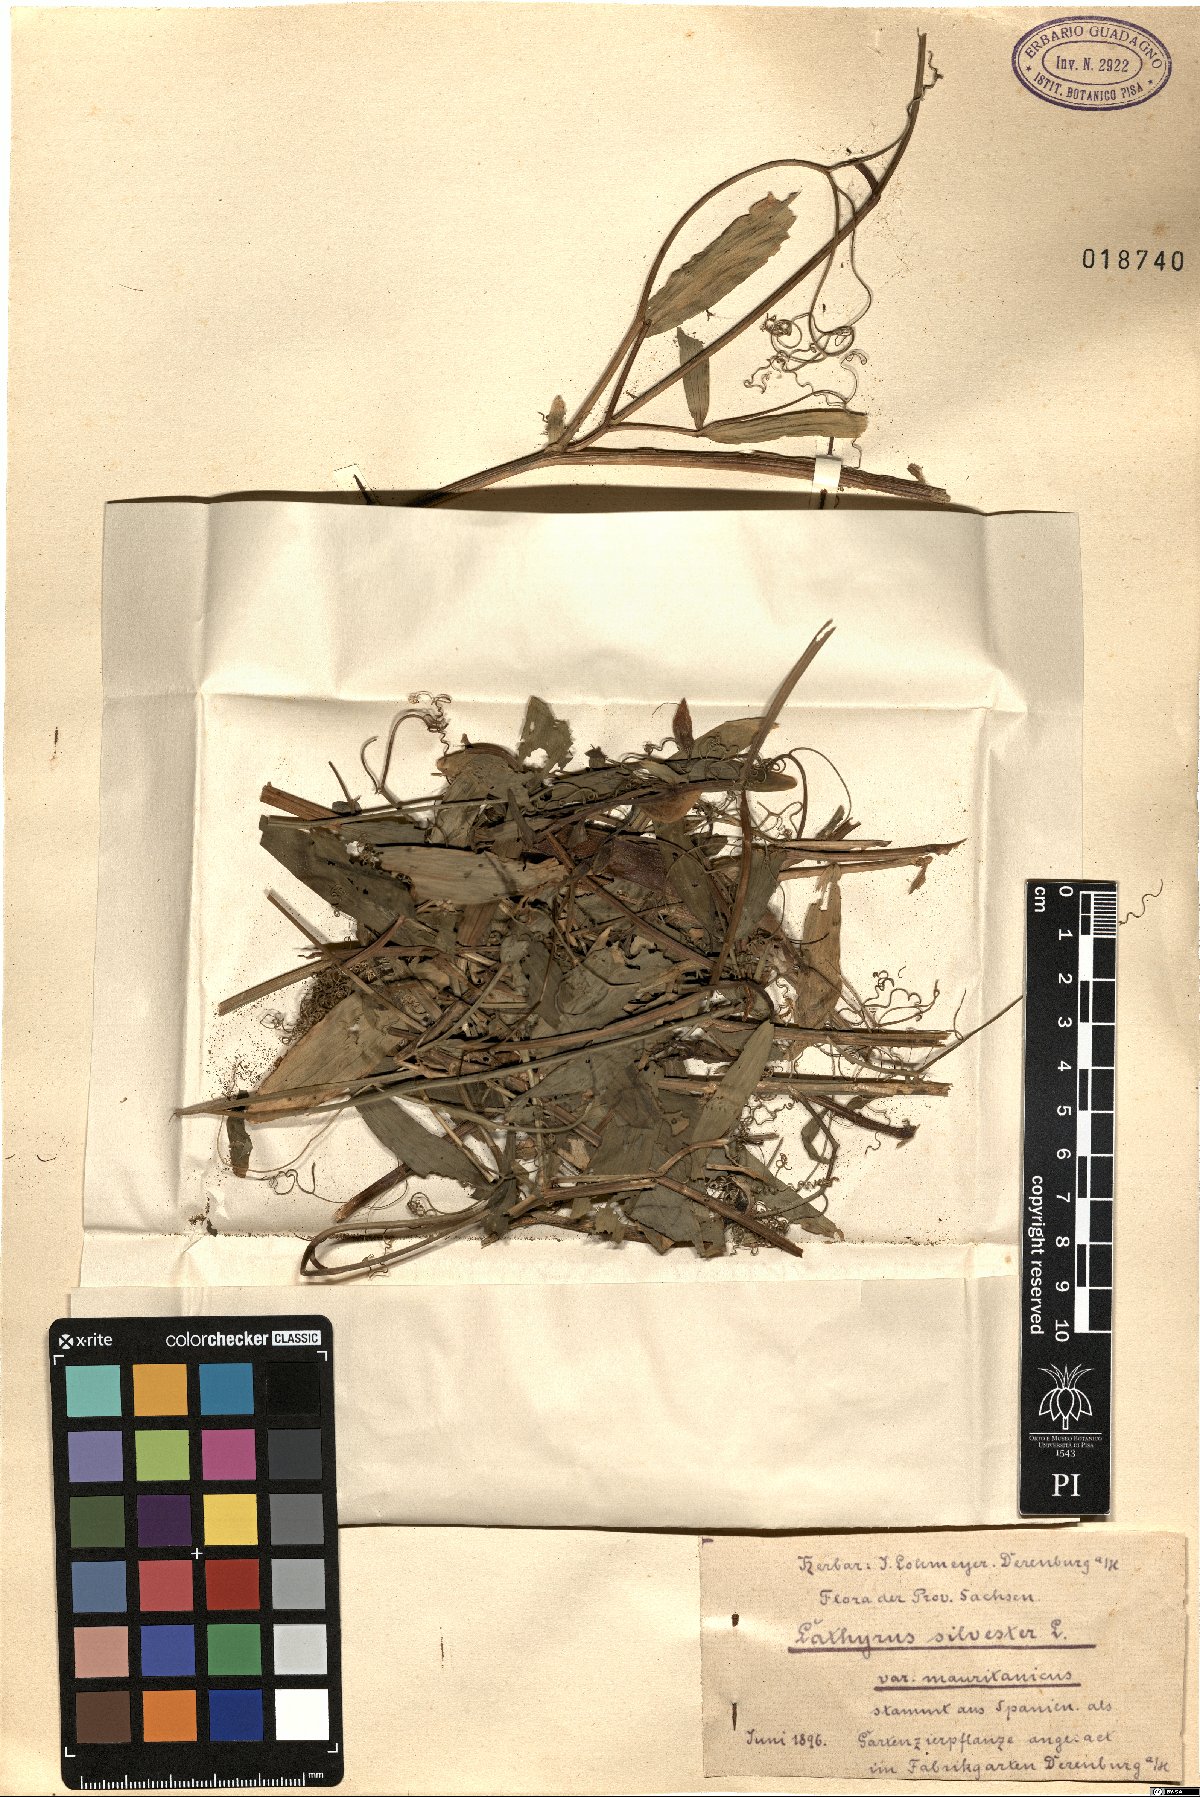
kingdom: Plantae
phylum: Tracheophyta
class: Magnoliopsida
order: Fabales
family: Fabaceae
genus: Lathyrus
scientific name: Lathyrus sylvestris
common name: Flat pea
